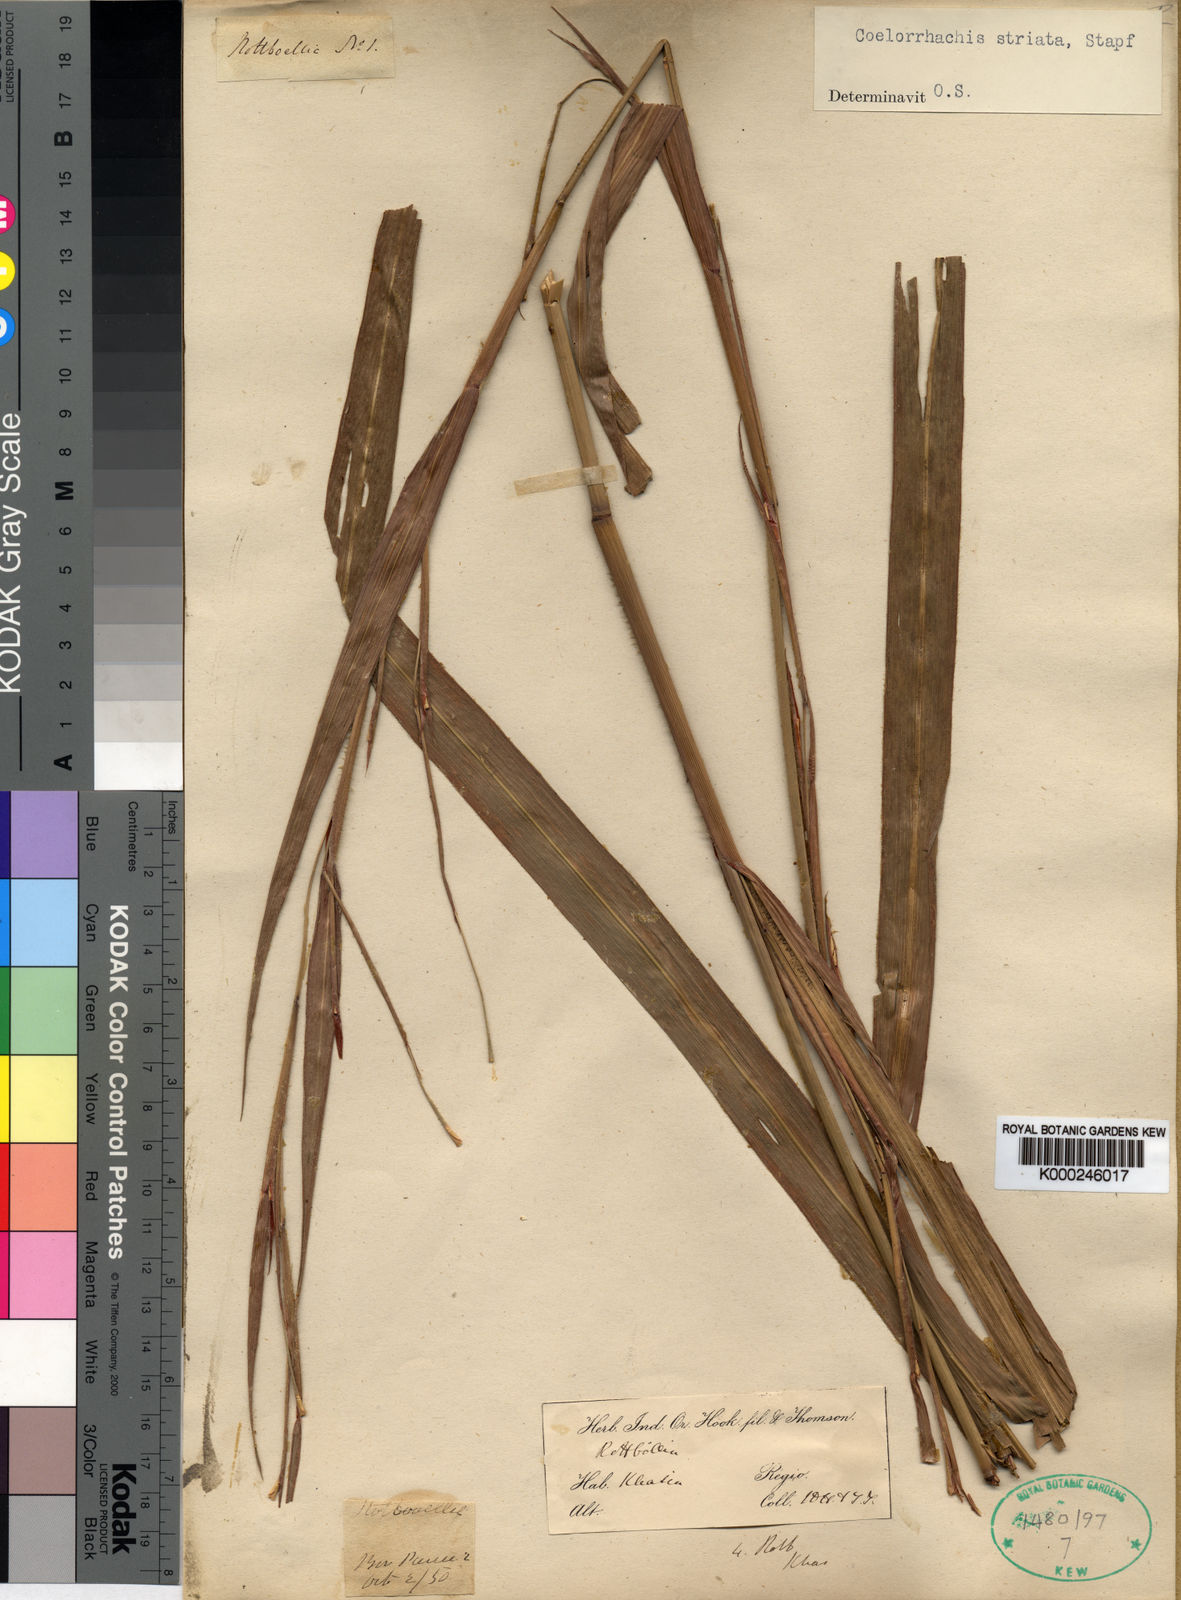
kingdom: Plantae
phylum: Tracheophyta
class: Liliopsida
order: Poales
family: Poaceae
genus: Rottboellia
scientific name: Rottboellia striata
